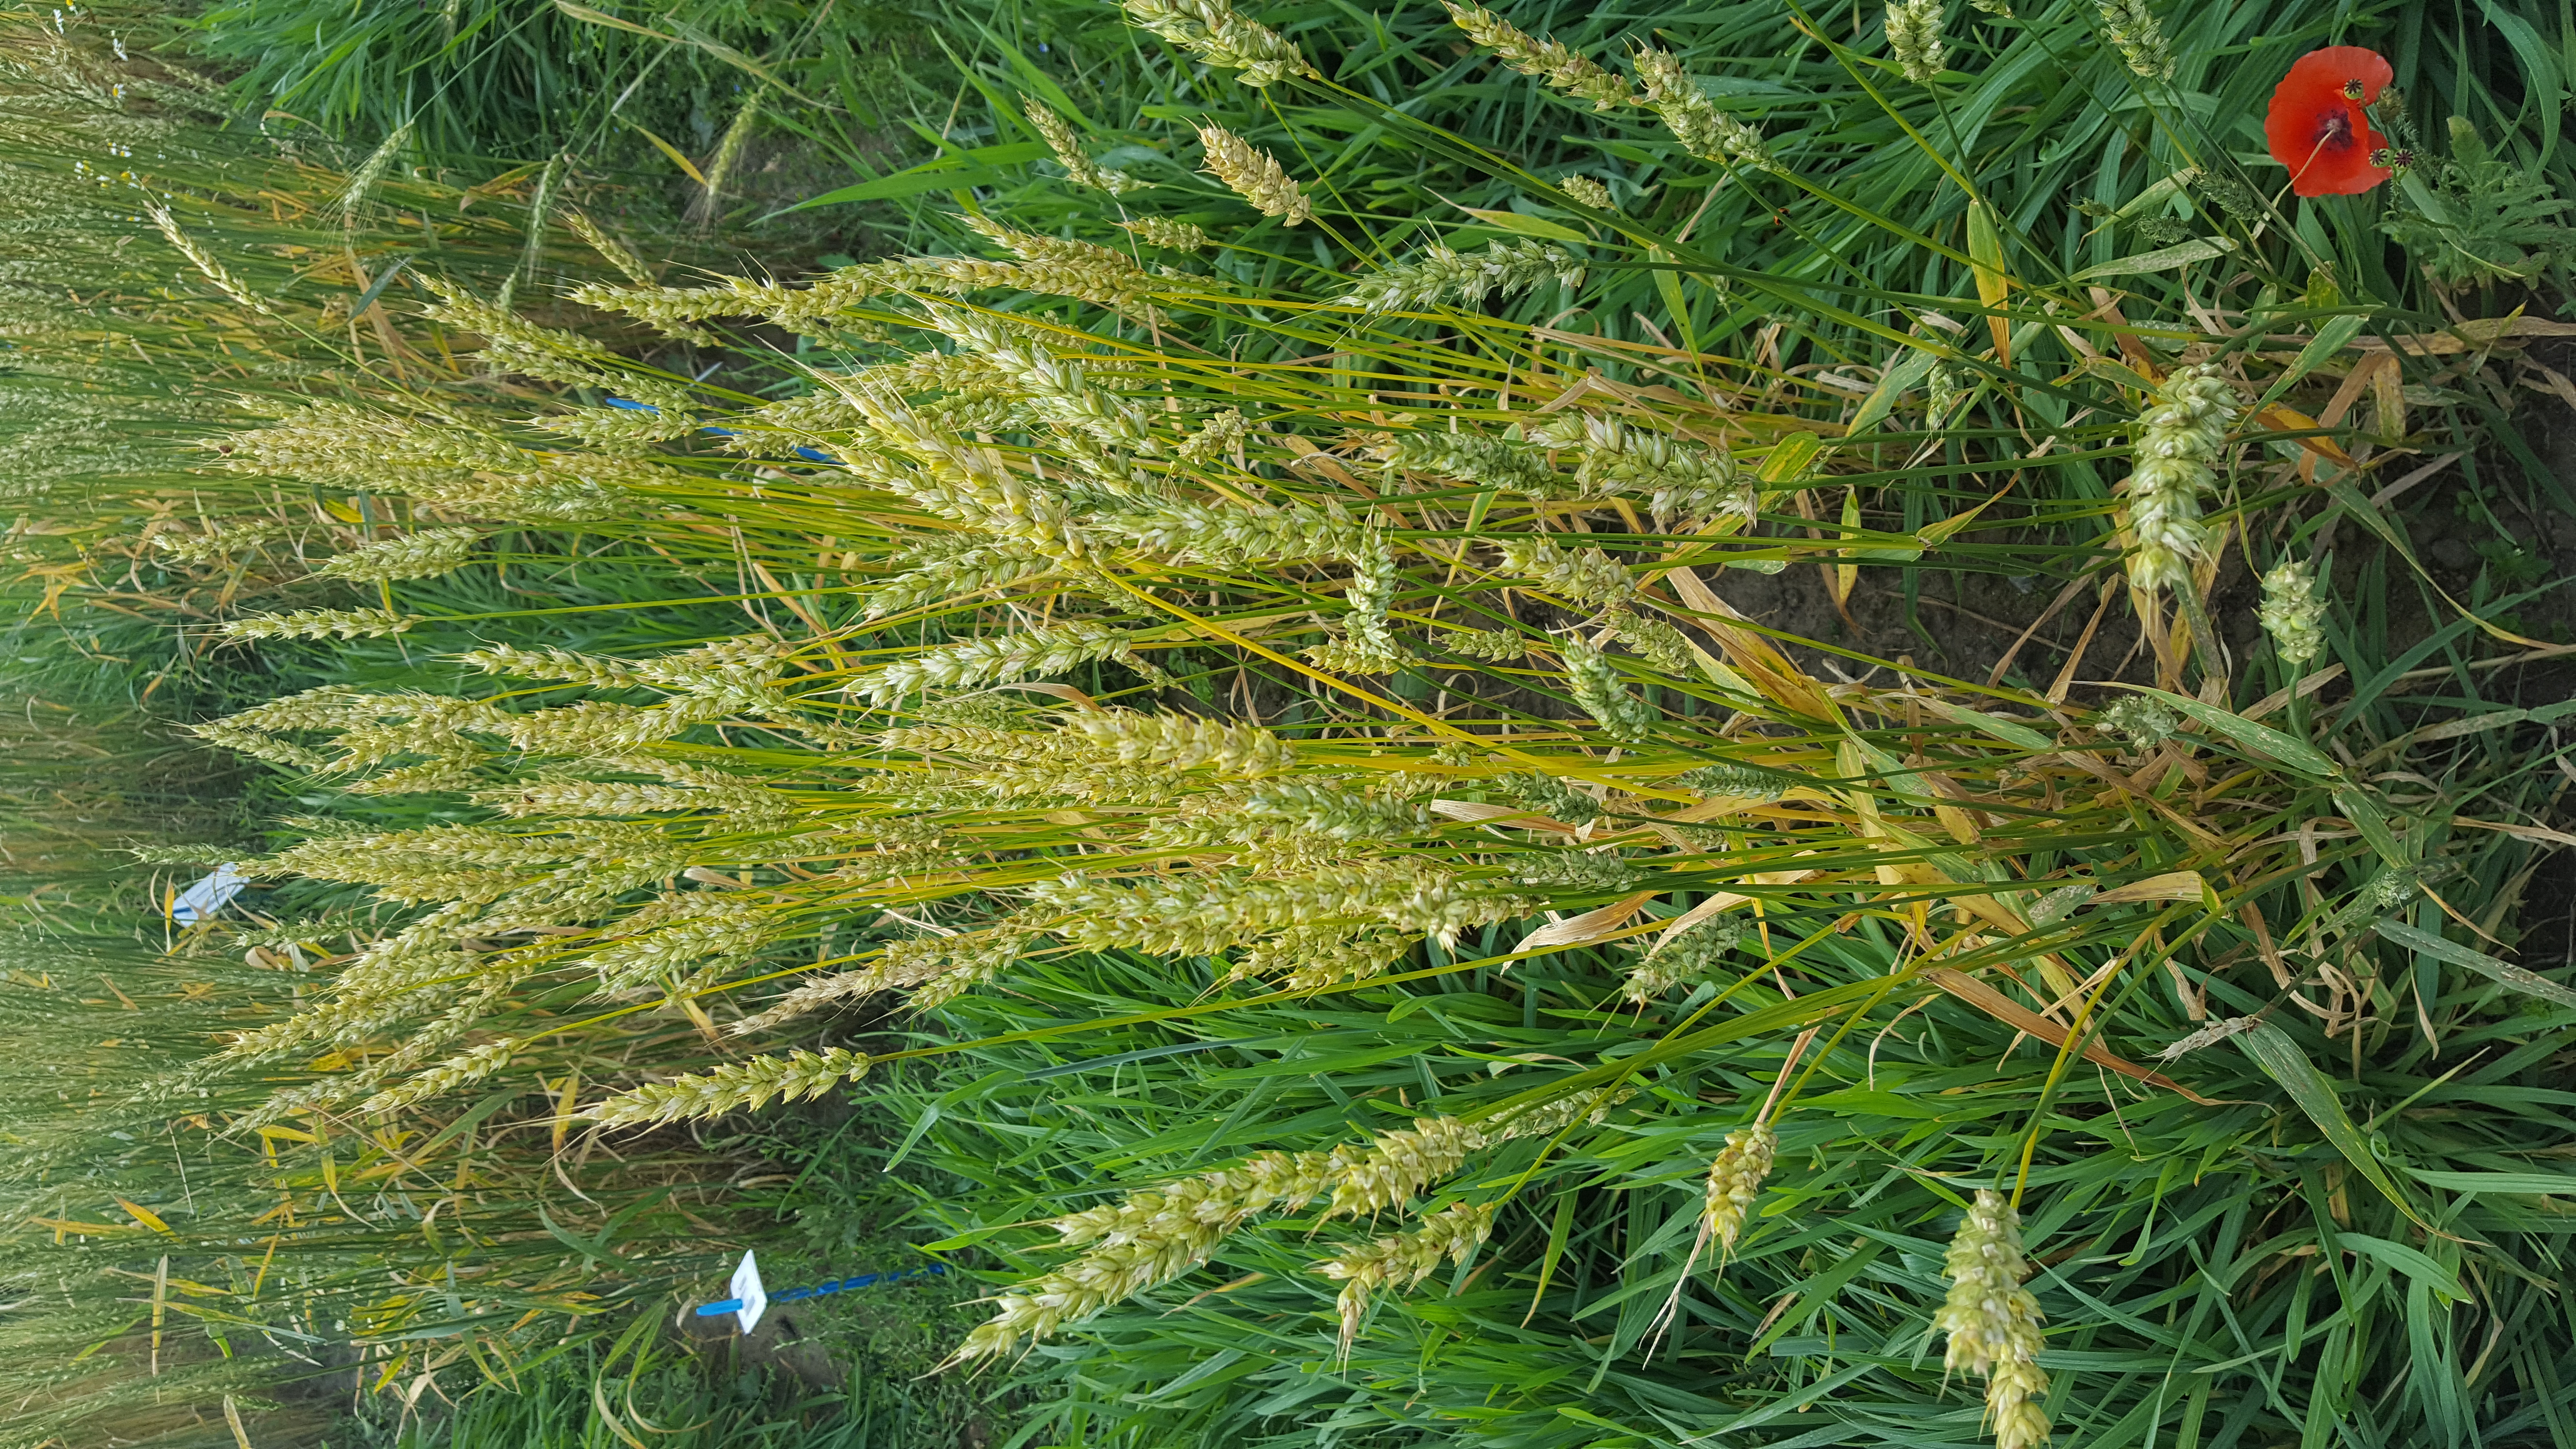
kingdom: Plantae
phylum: Tracheophyta
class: Liliopsida
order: Poales
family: Poaceae
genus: Triticum
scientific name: Triticum aestivum
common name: Common wheat
